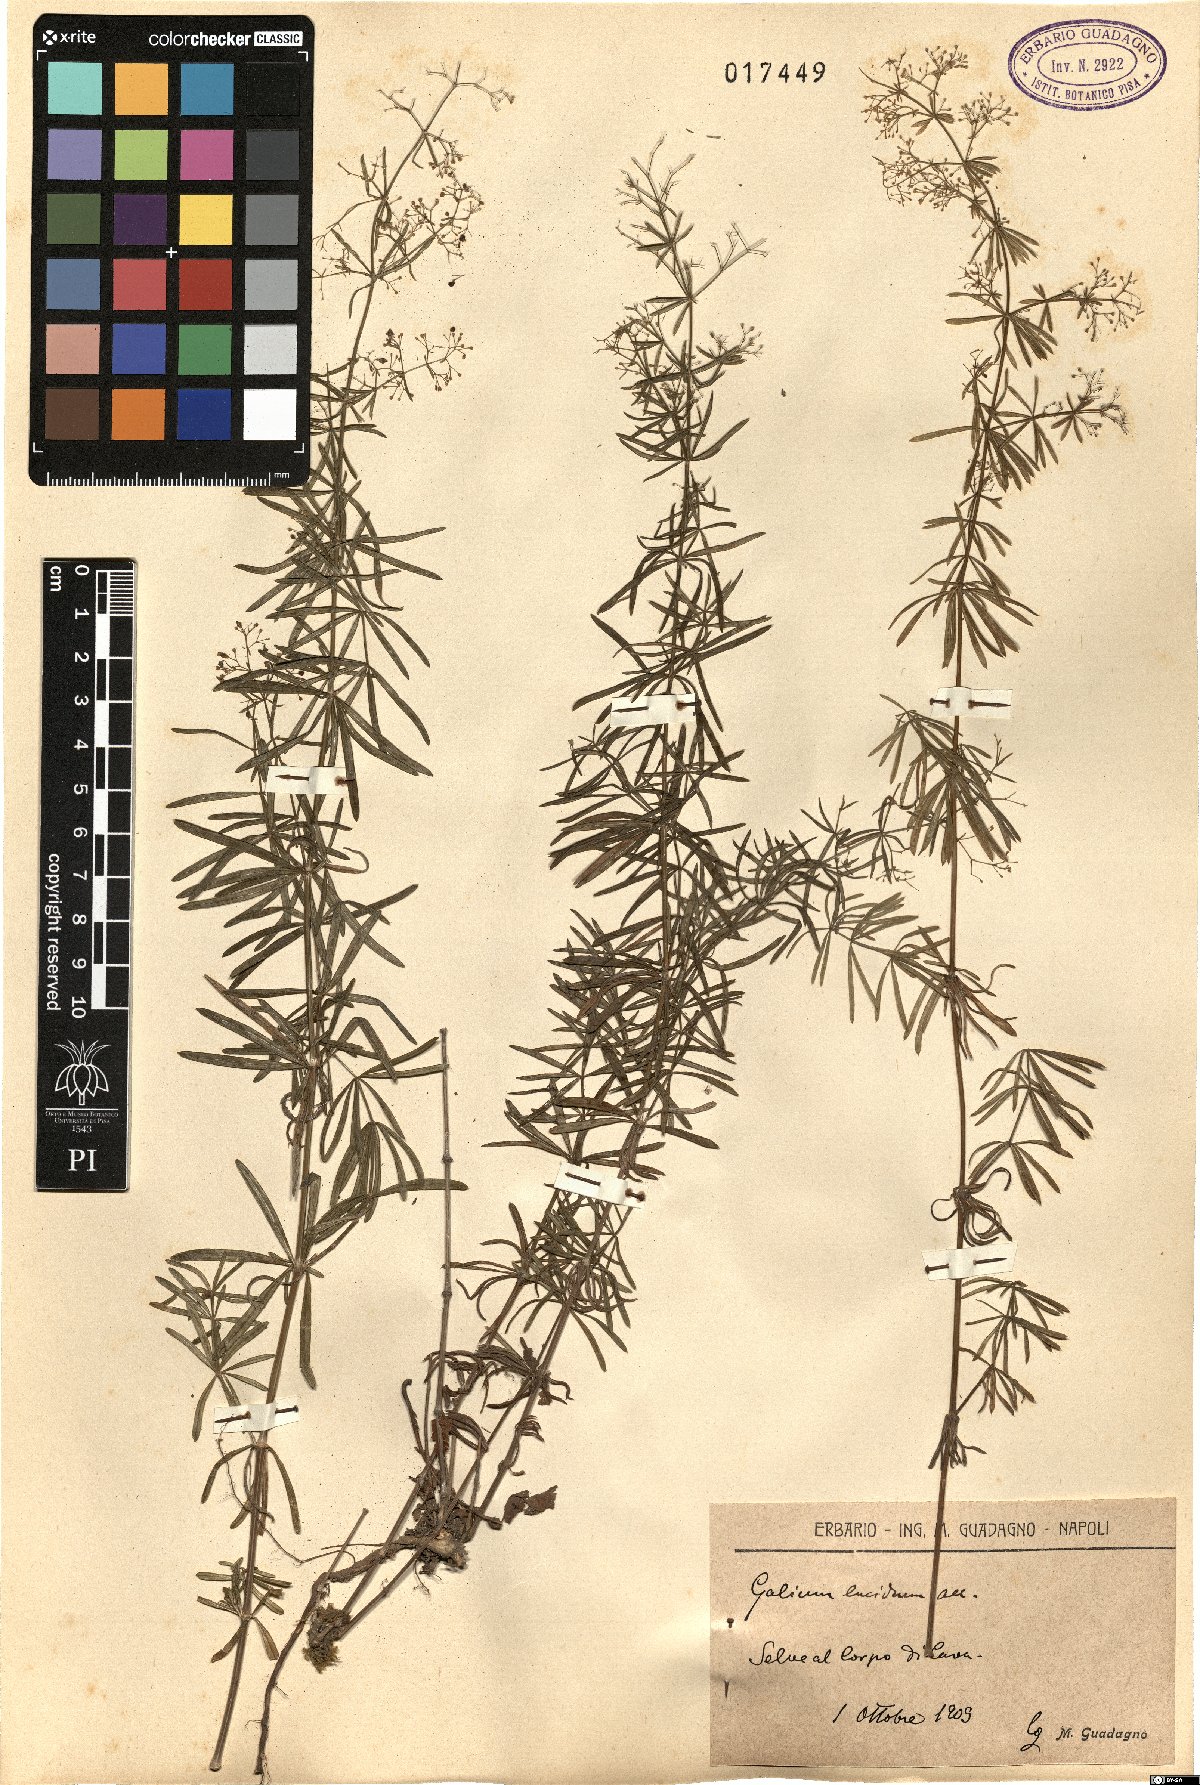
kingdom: Plantae
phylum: Tracheophyta
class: Magnoliopsida
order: Gentianales
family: Rubiaceae
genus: Galium
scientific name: Galium lucidum
